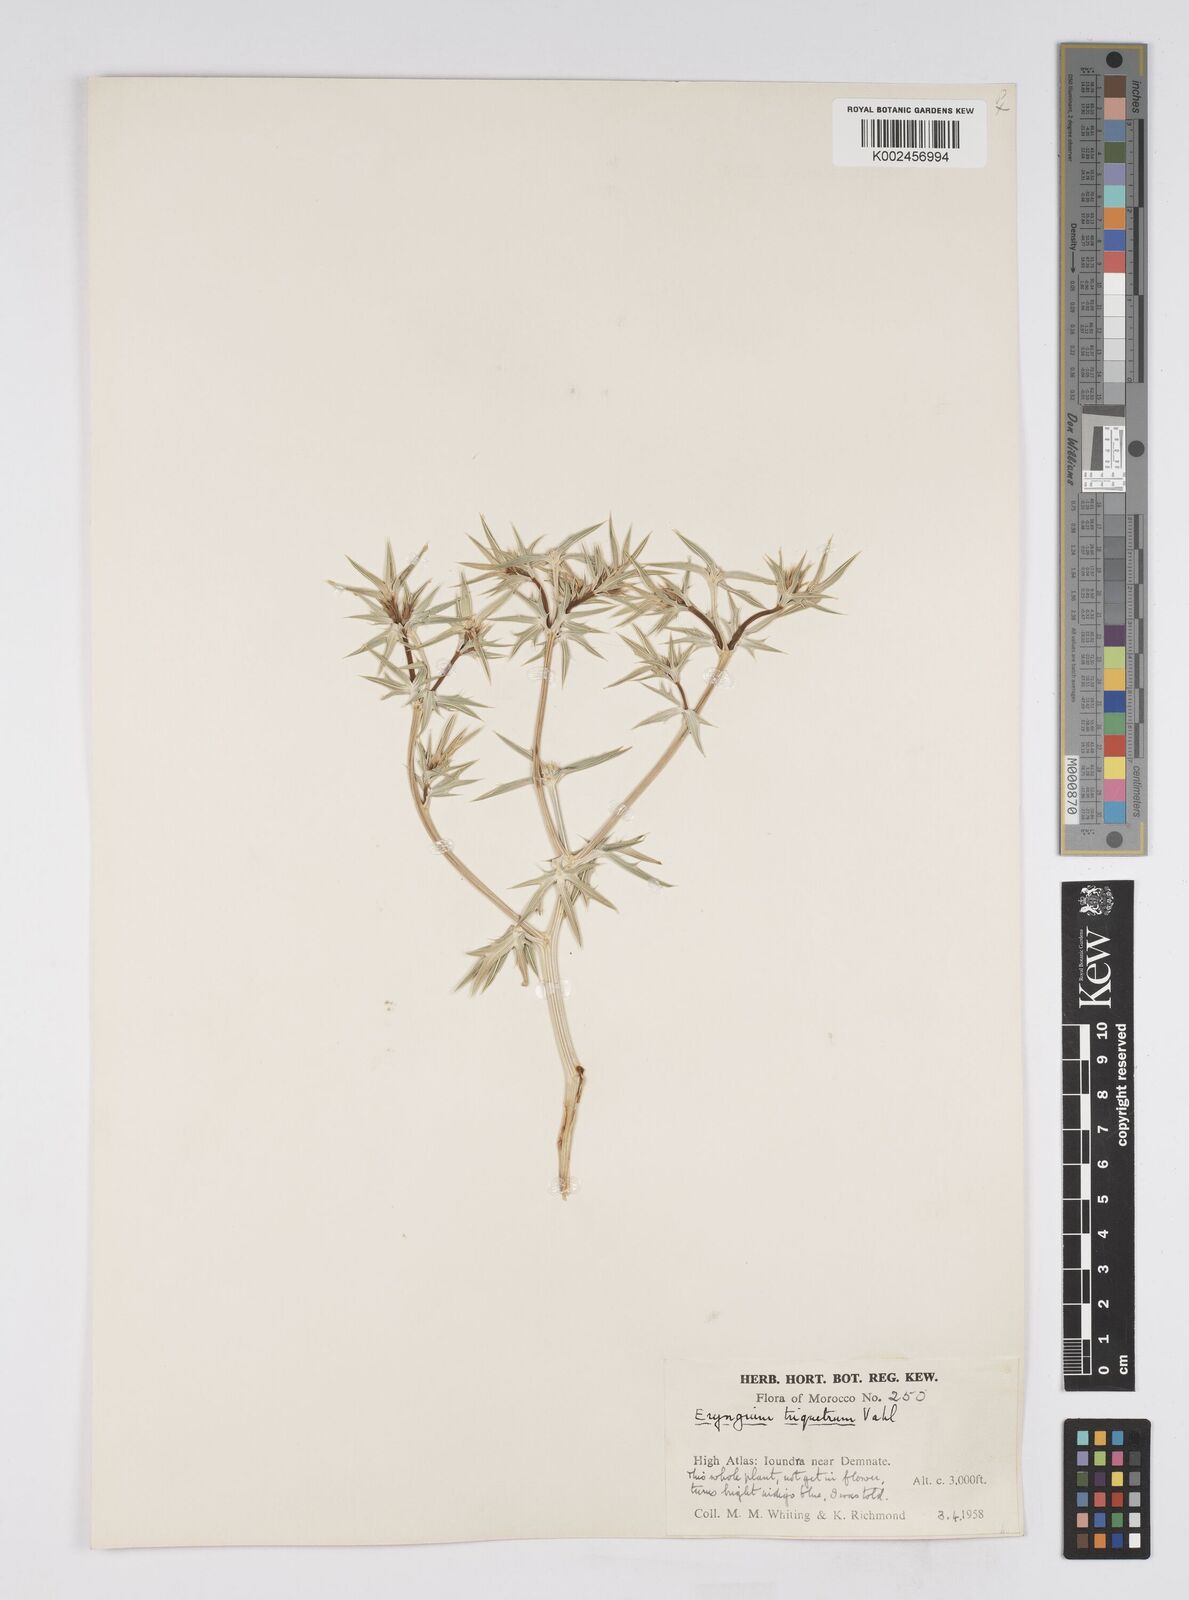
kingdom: Plantae
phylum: Tracheophyta
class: Magnoliopsida
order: Apiales
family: Apiaceae
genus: Eryngium
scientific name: Eryngium
